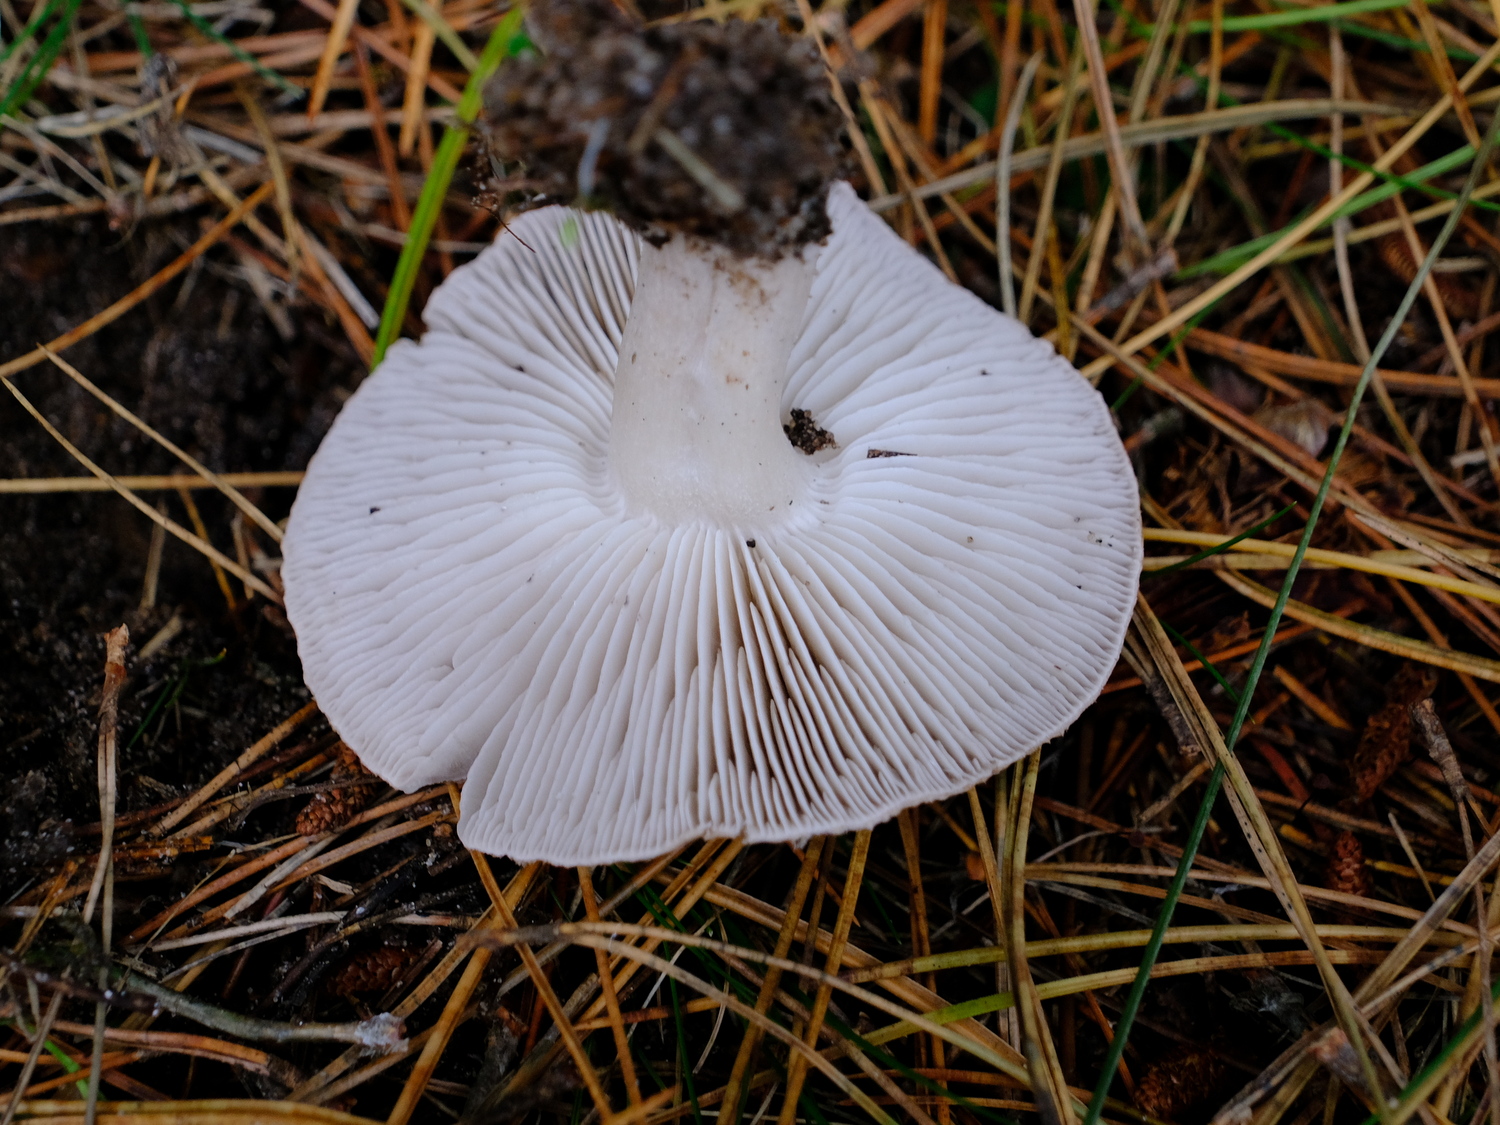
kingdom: Fungi
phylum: Basidiomycota
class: Agaricomycetes
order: Agaricales
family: Tricholomataceae
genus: Tricholoma
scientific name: Tricholoma terreum
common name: jordfarvet ridderhat
